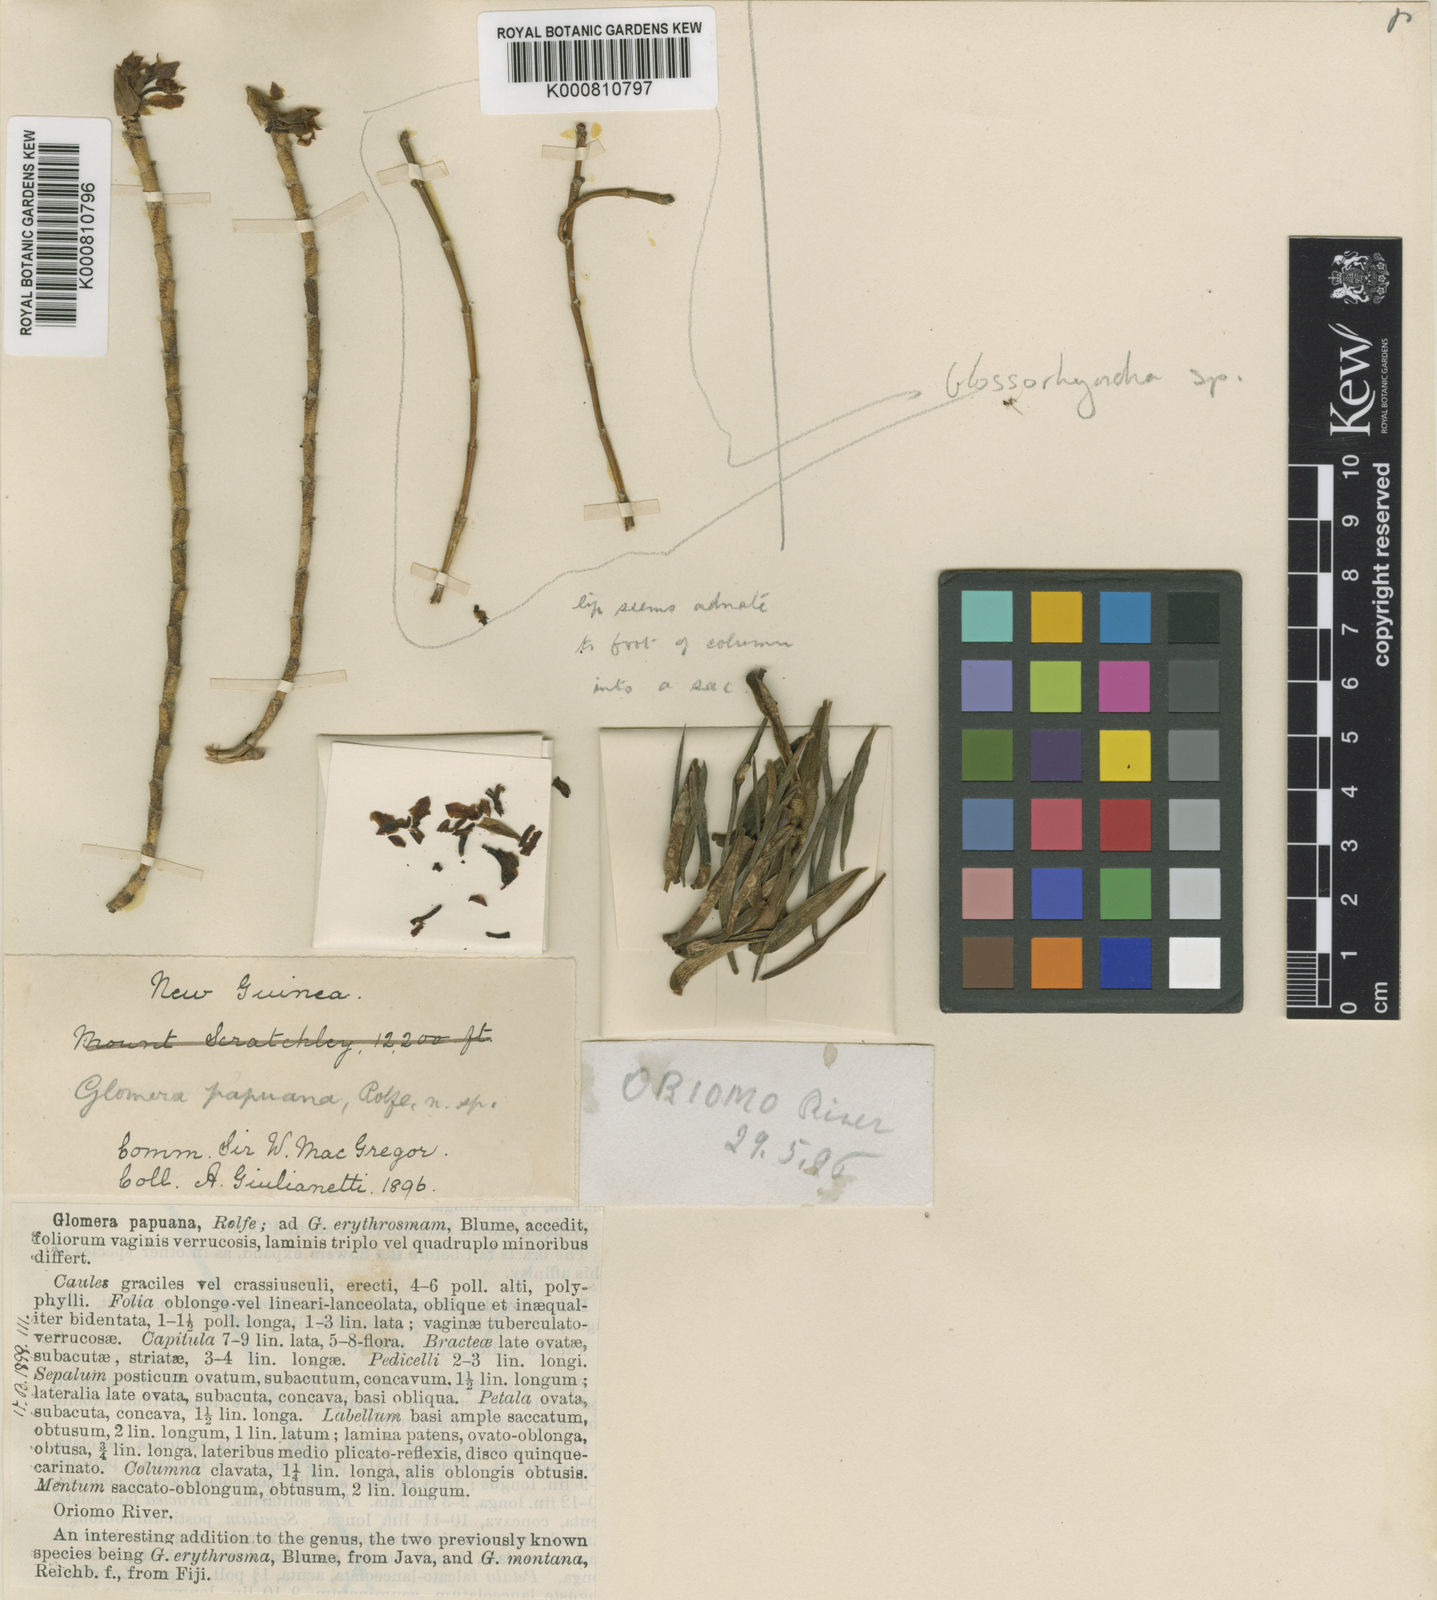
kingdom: Plantae
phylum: Tracheophyta
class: Liliopsida
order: Asparagales
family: Orchidaceae
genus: Glomera
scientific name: Glomera papuana
